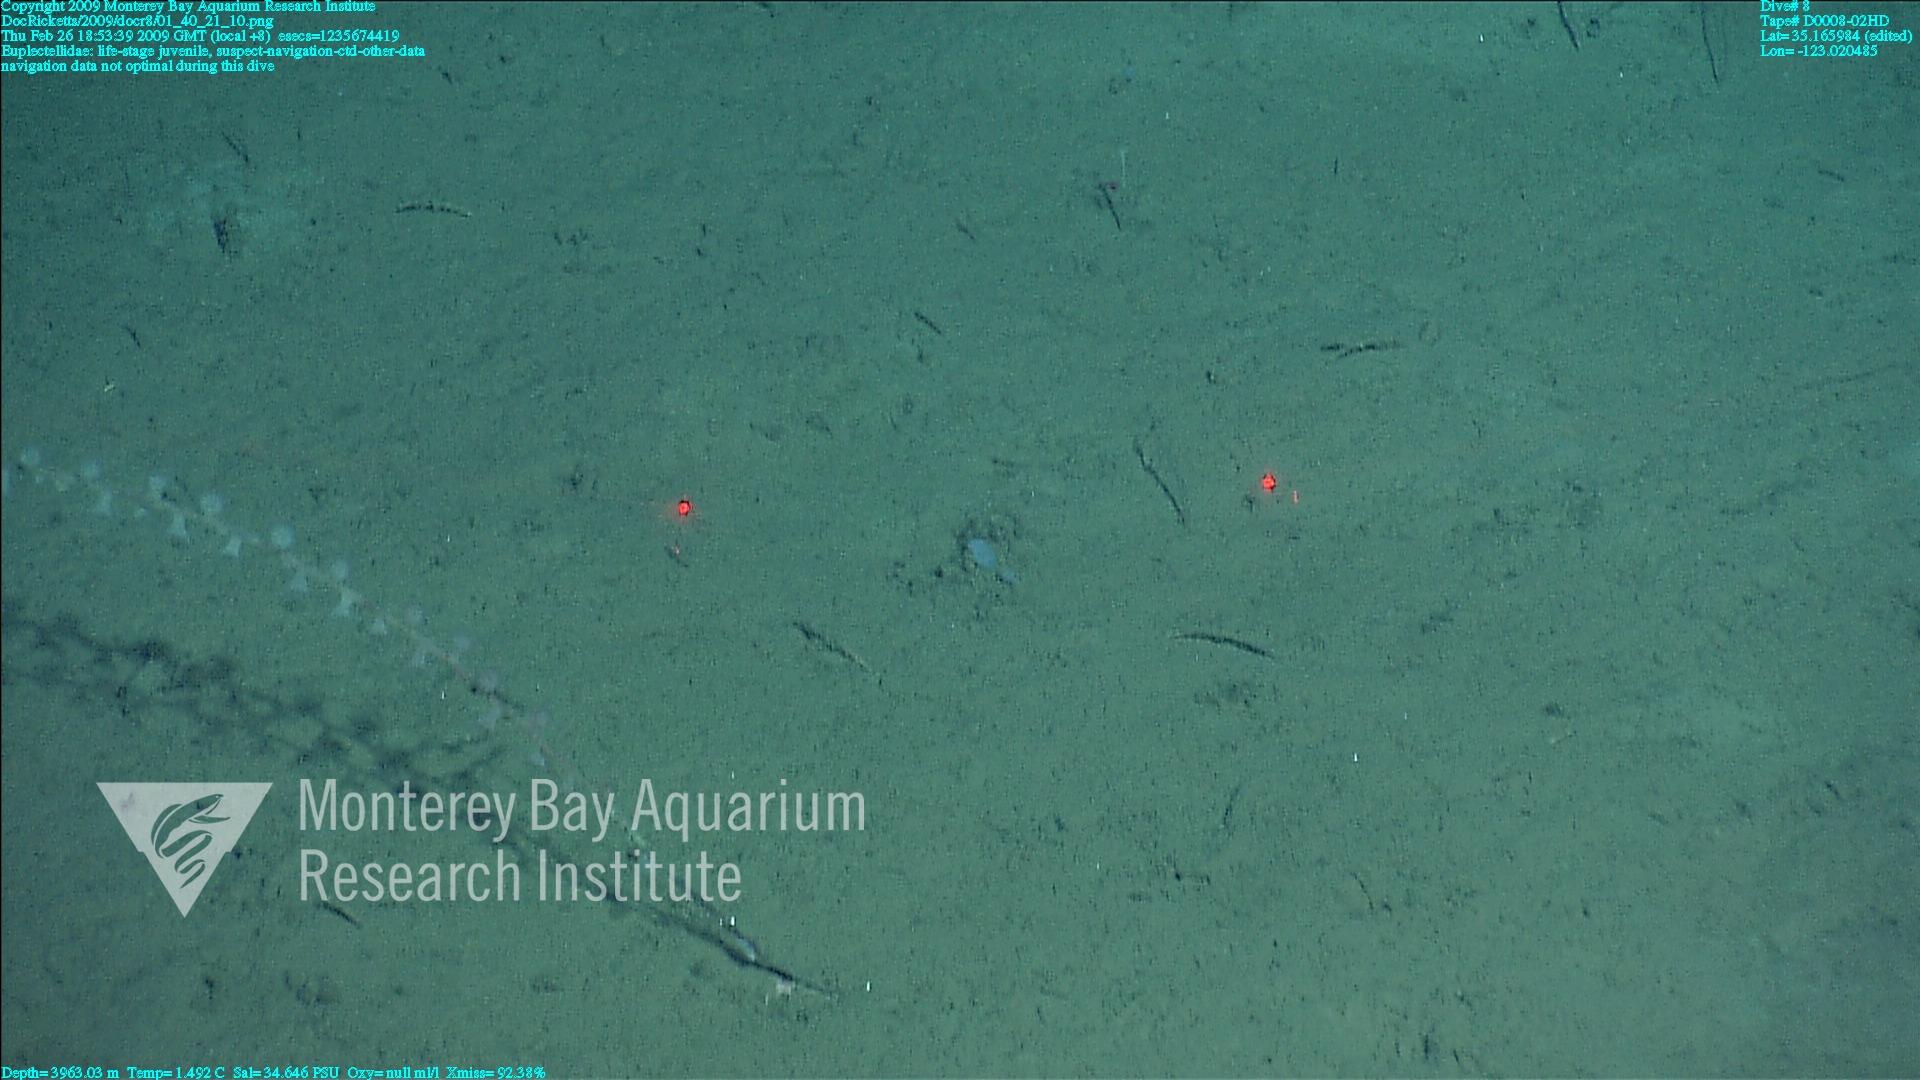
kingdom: Animalia
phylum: Porifera
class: Hexactinellida
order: Lyssacinosida
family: Euplectellidae
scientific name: Euplectellidae
